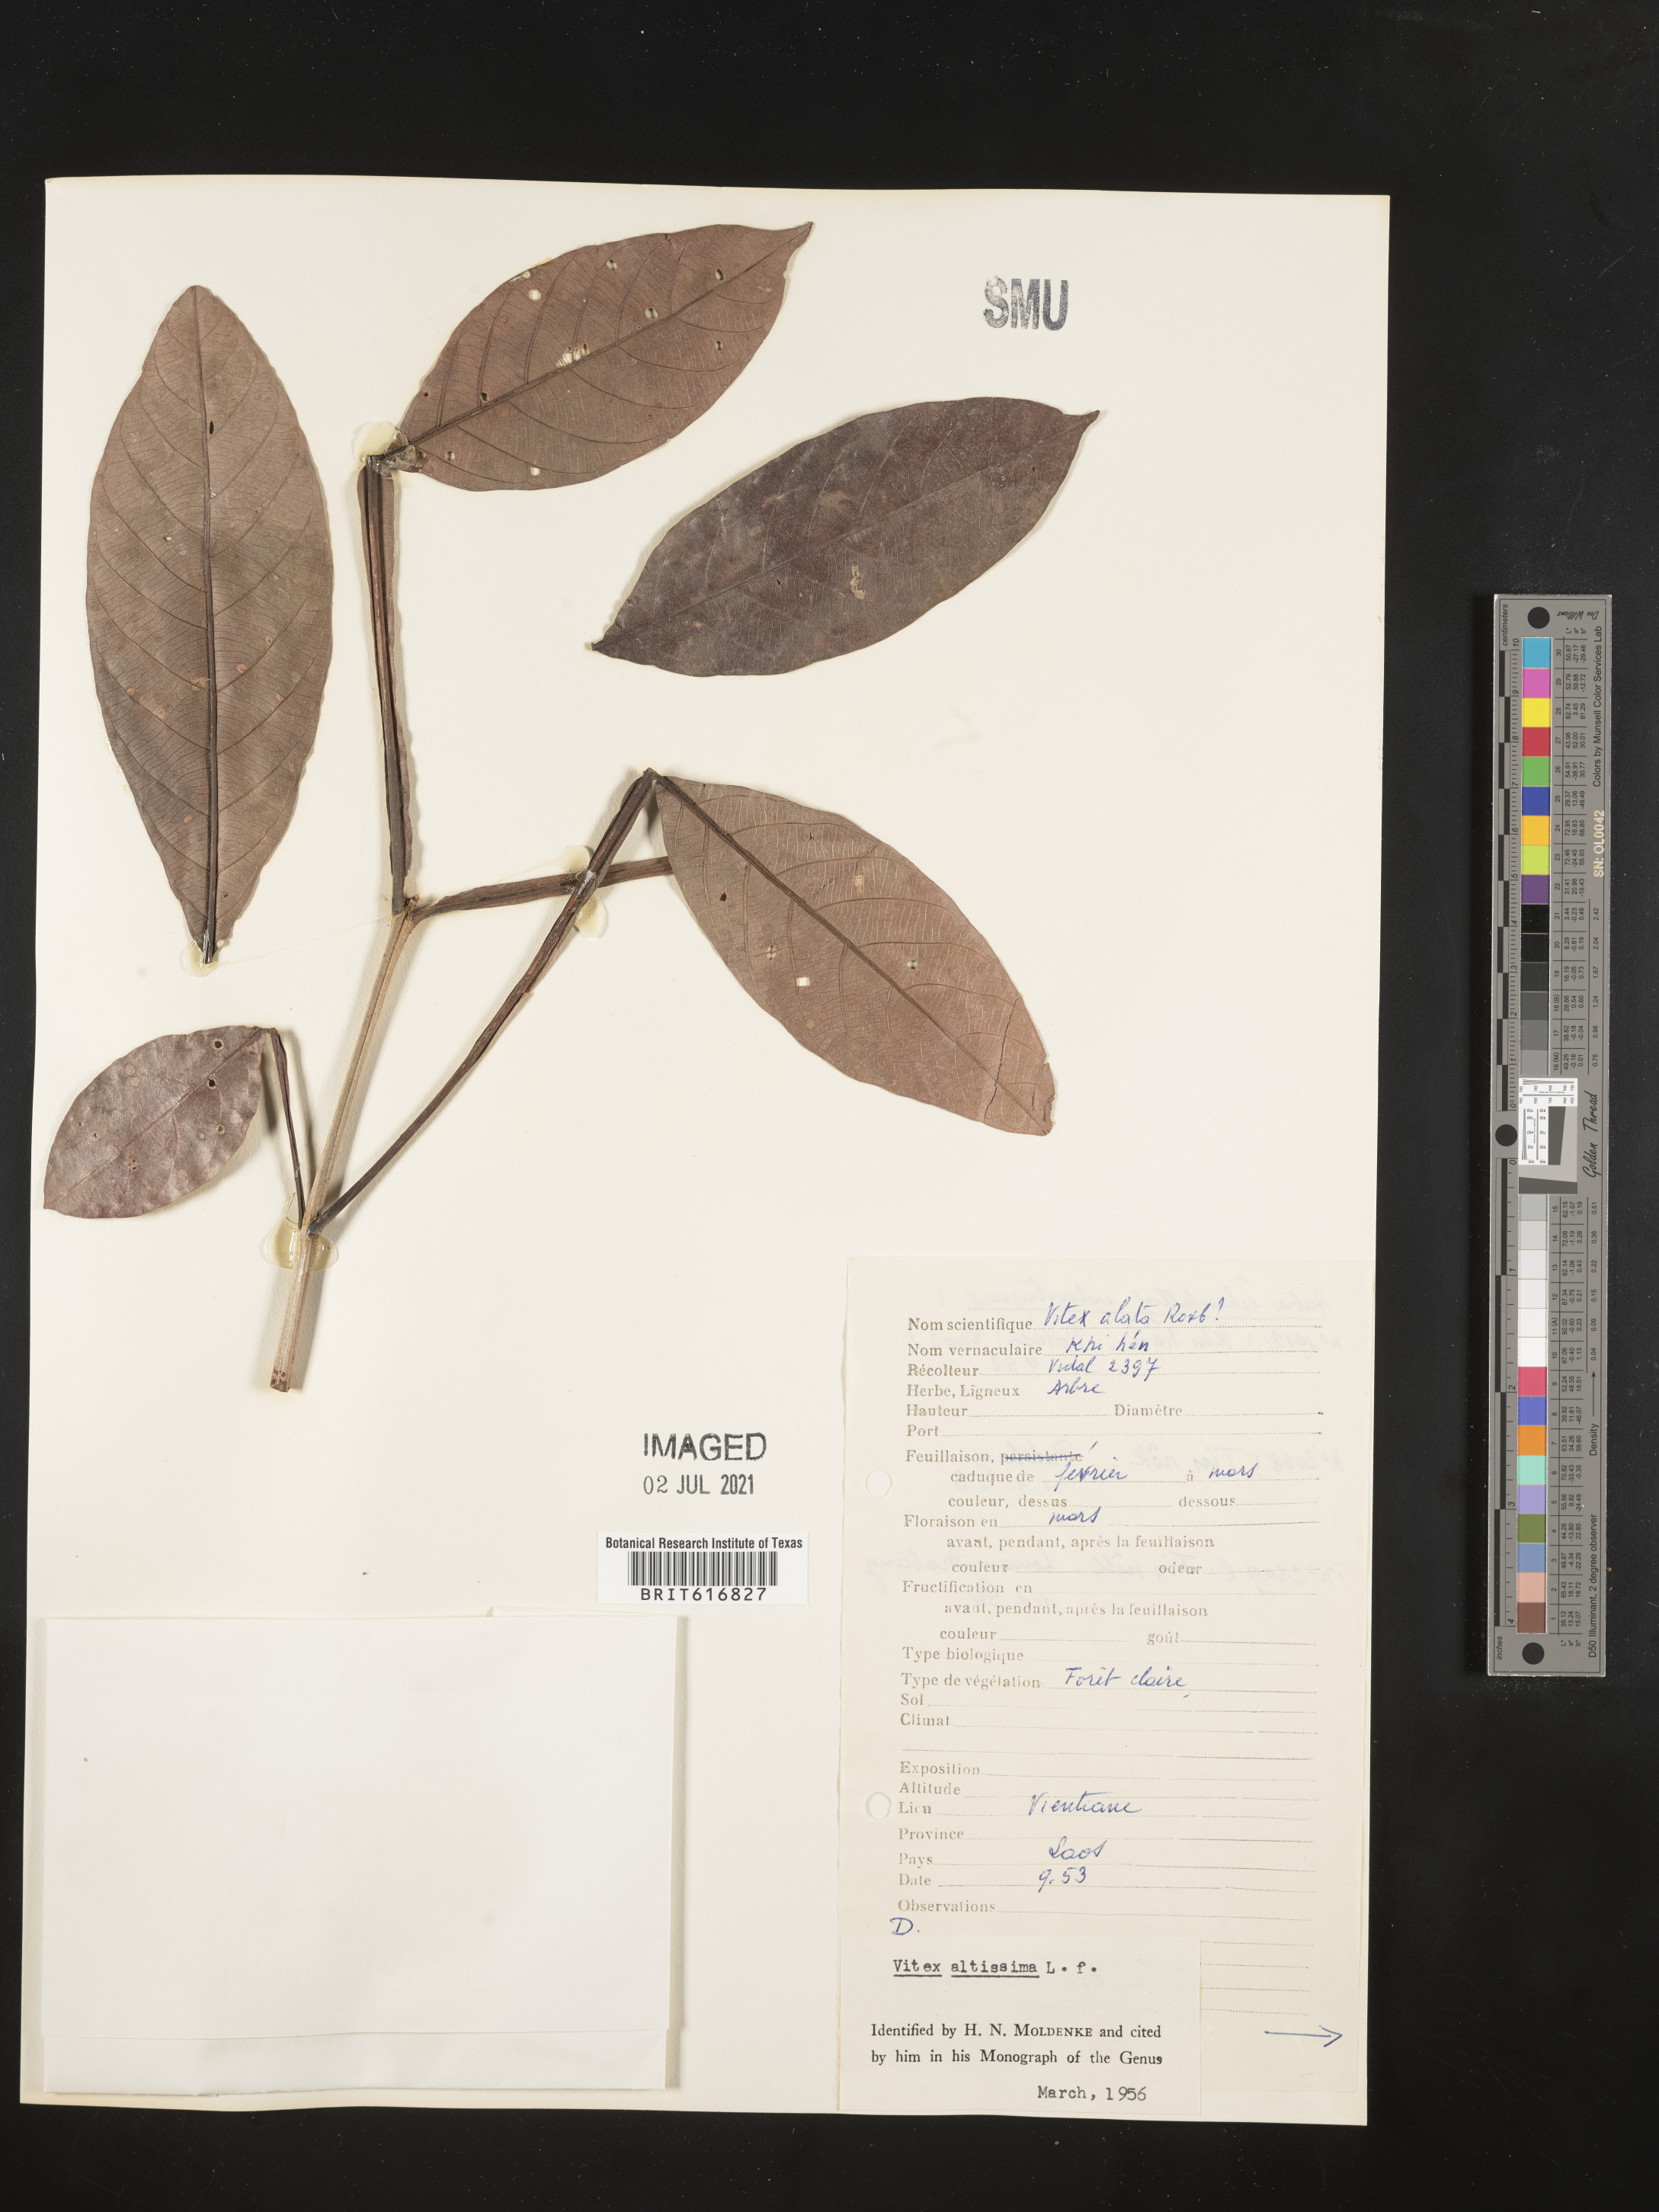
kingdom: Plantae
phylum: Tracheophyta
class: Magnoliopsida
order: Lamiales
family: Lamiaceae
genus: Vitex
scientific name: Vitex altissima
